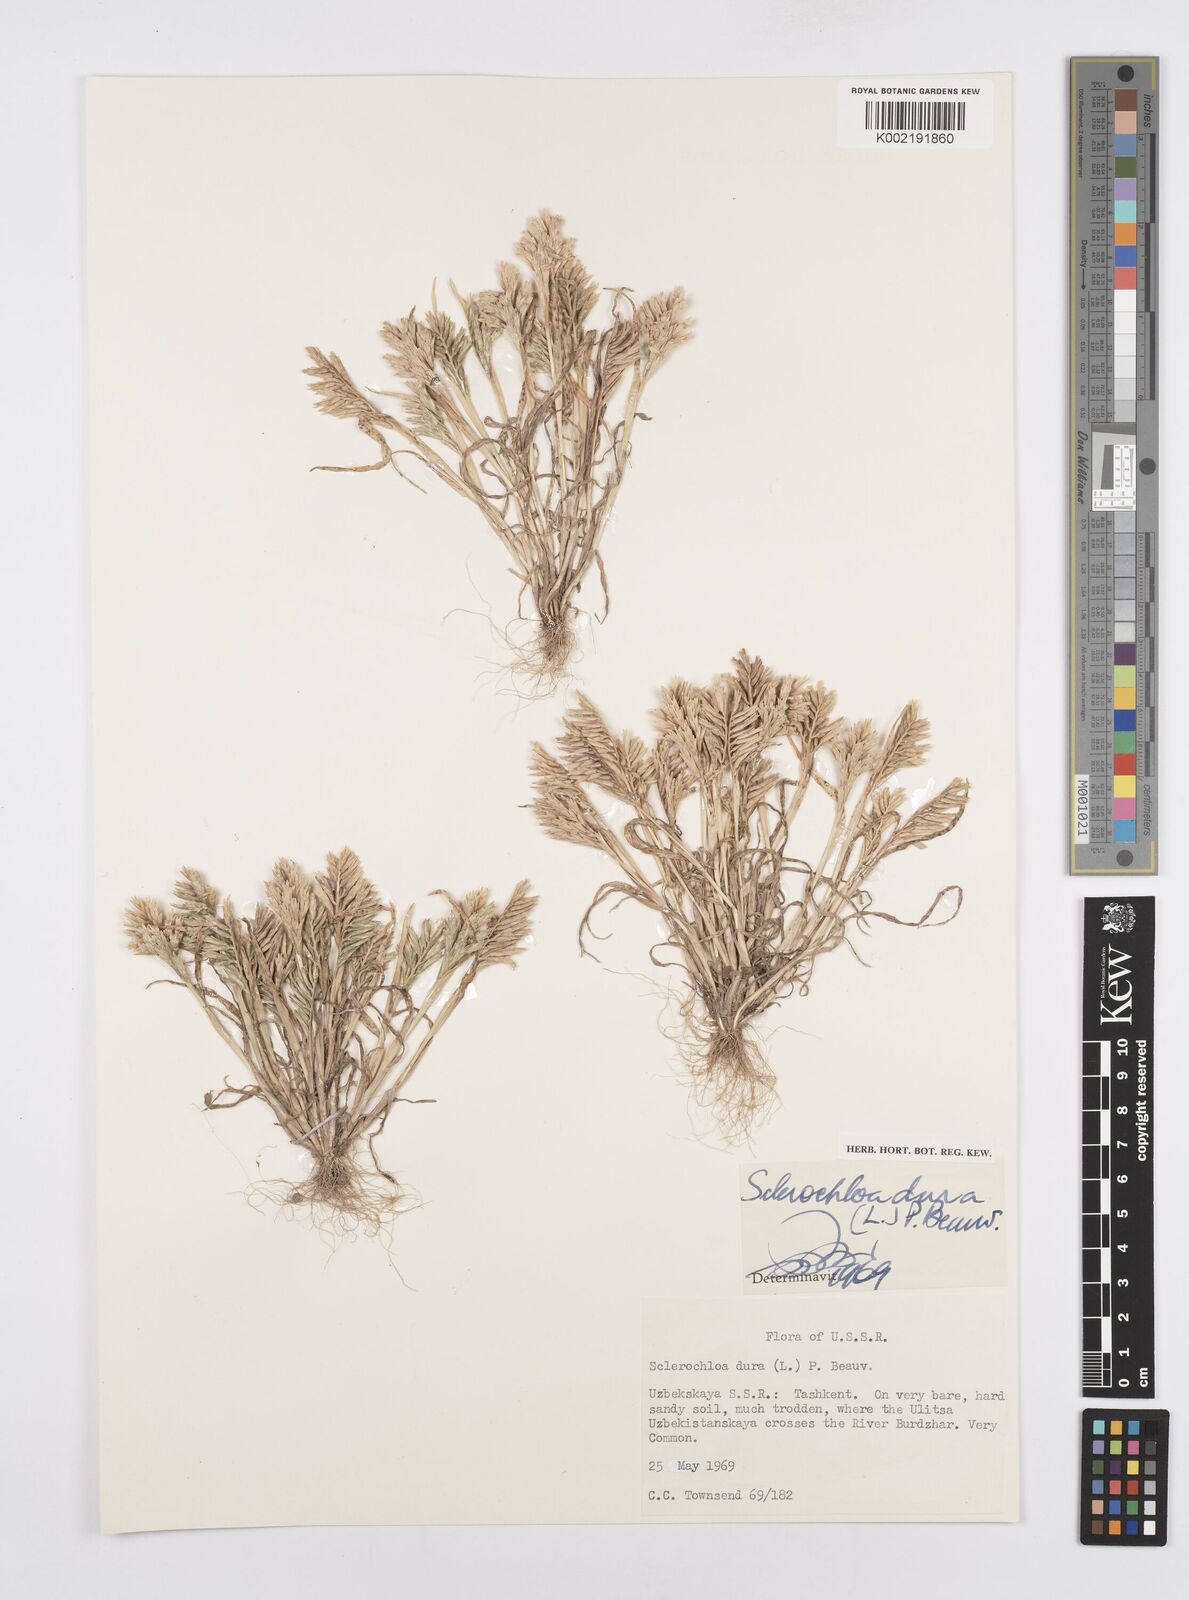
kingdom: Plantae
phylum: Tracheophyta
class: Liliopsida
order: Poales
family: Poaceae
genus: Sclerochloa
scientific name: Sclerochloa dura
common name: Common hardgrass
